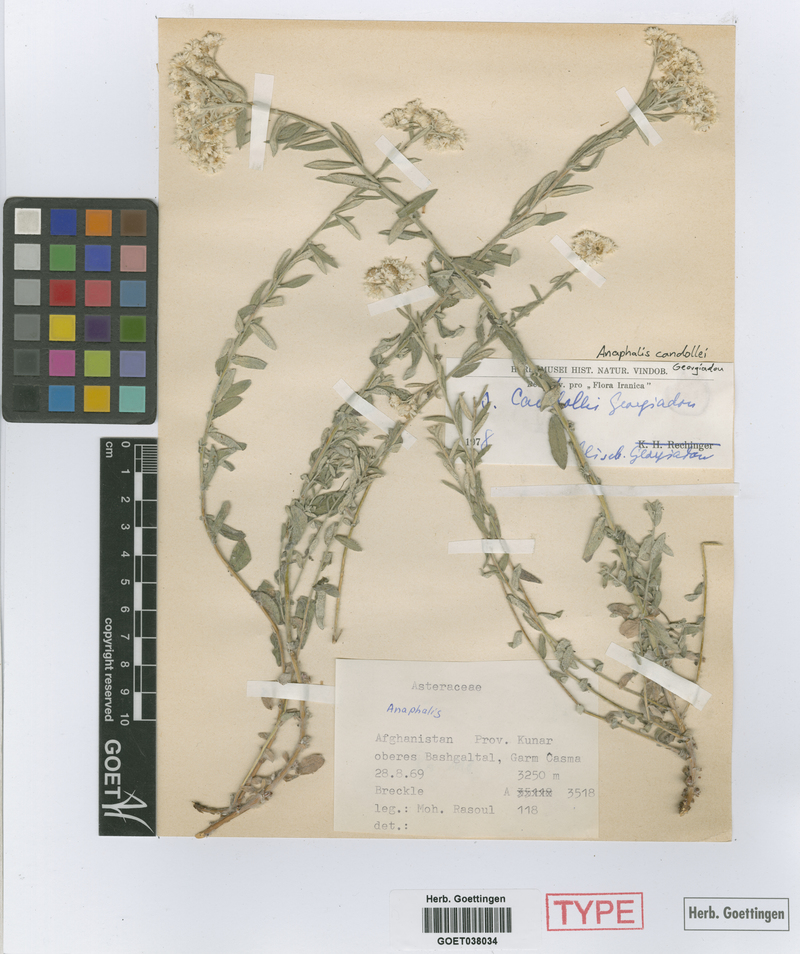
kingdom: Plantae
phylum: Tracheophyta
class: Magnoliopsida
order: Asterales
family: Asteraceae
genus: Anaphalis
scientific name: Anaphalis candollei
